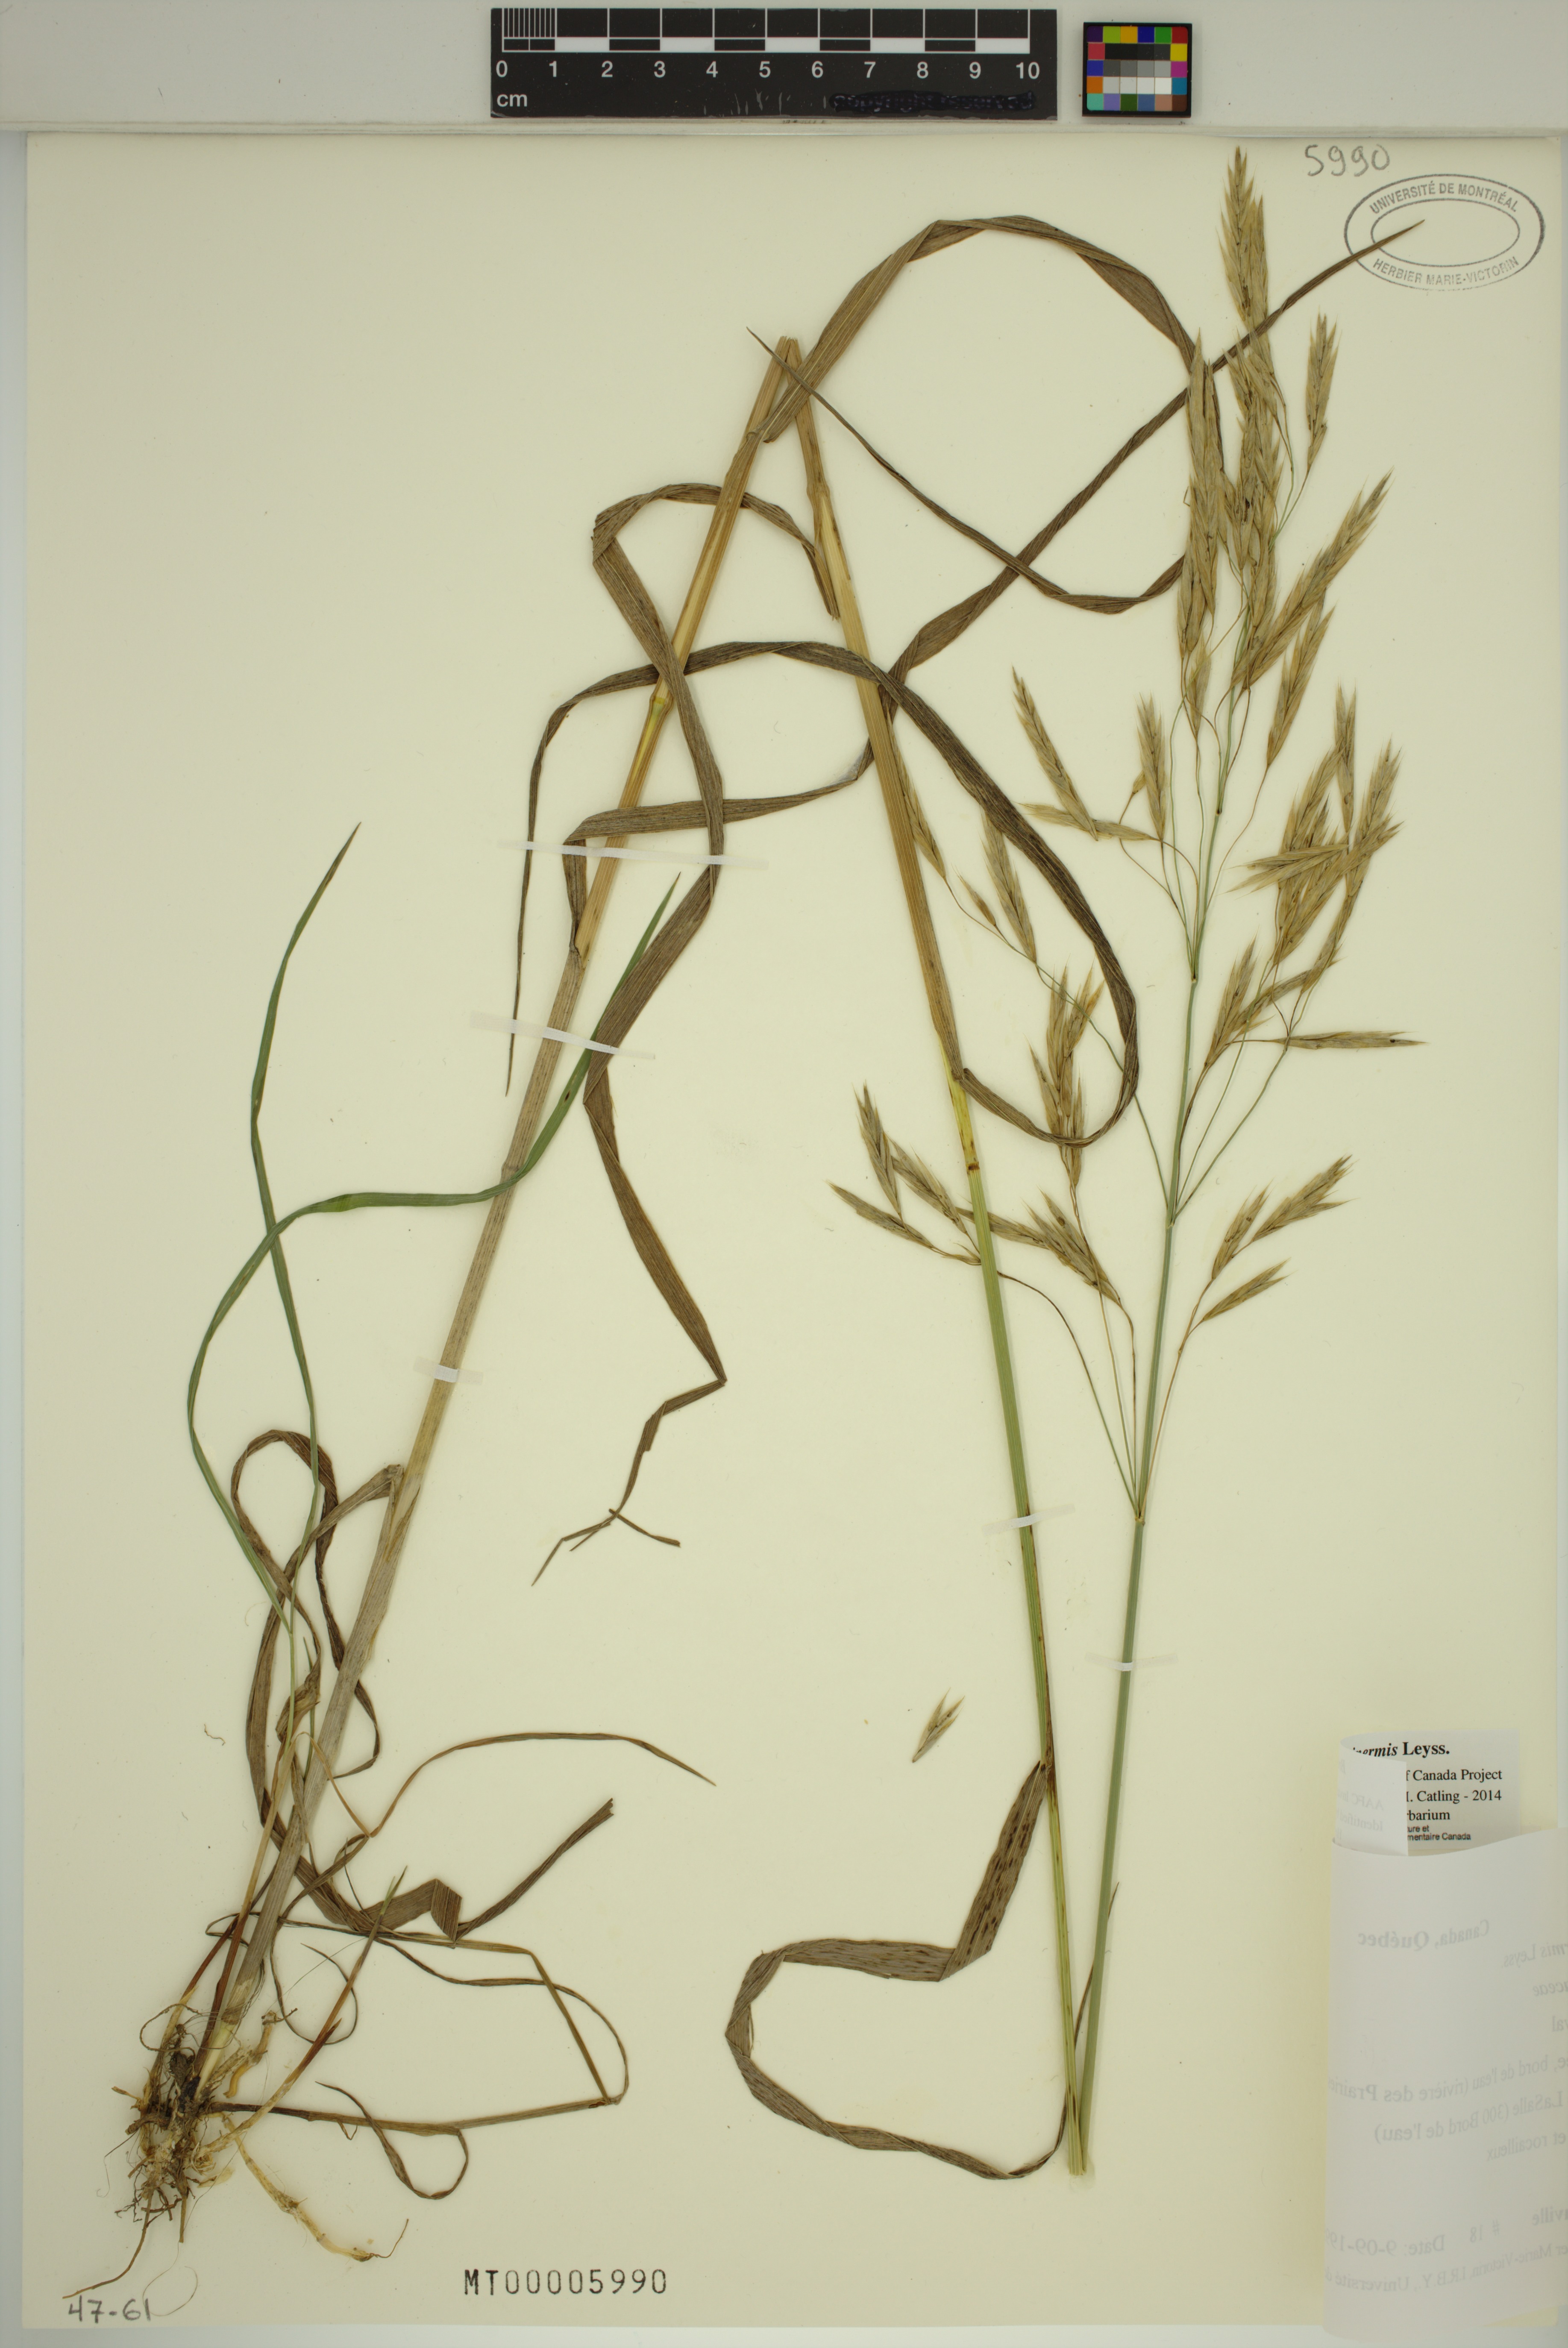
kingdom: Plantae
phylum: Tracheophyta
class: Liliopsida
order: Poales
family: Poaceae
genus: Bromus
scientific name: Bromus inermis
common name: Smooth brome
